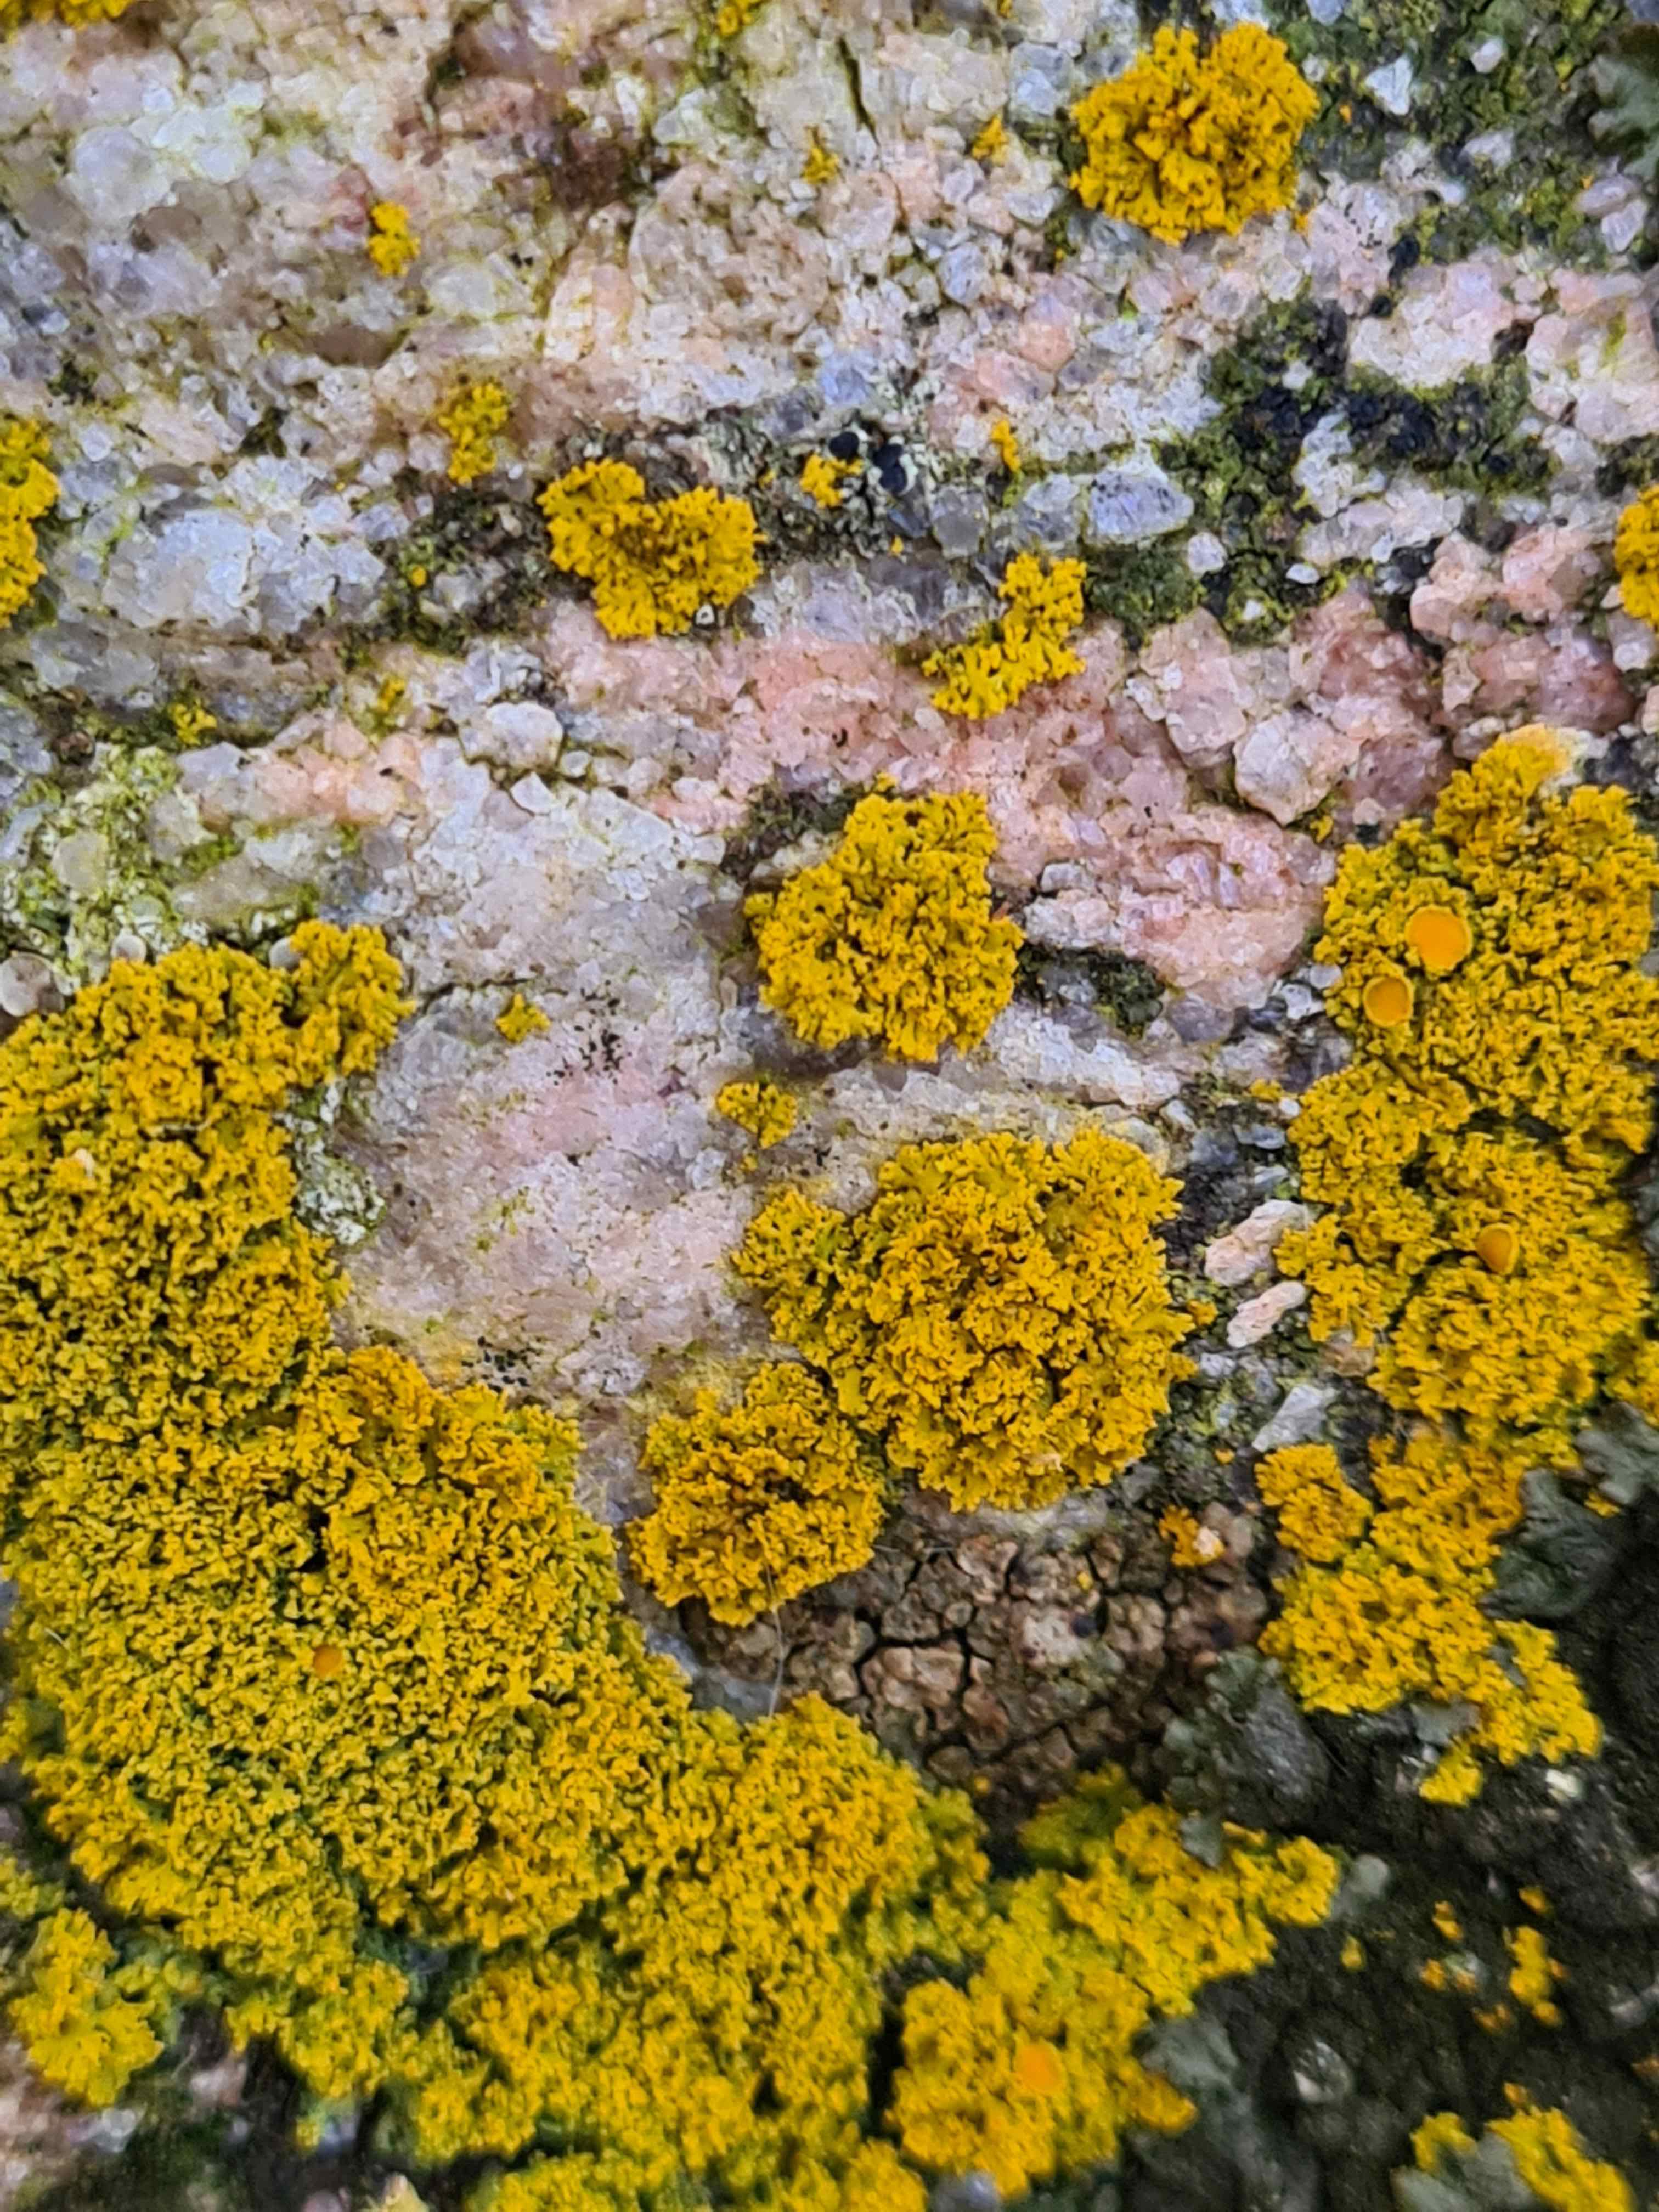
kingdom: Fungi
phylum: Ascomycota
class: Lecanoromycetes
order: Teloschistales
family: Teloschistaceae
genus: Polycauliona
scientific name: Polycauliona candelaria
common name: tue-orangelav
